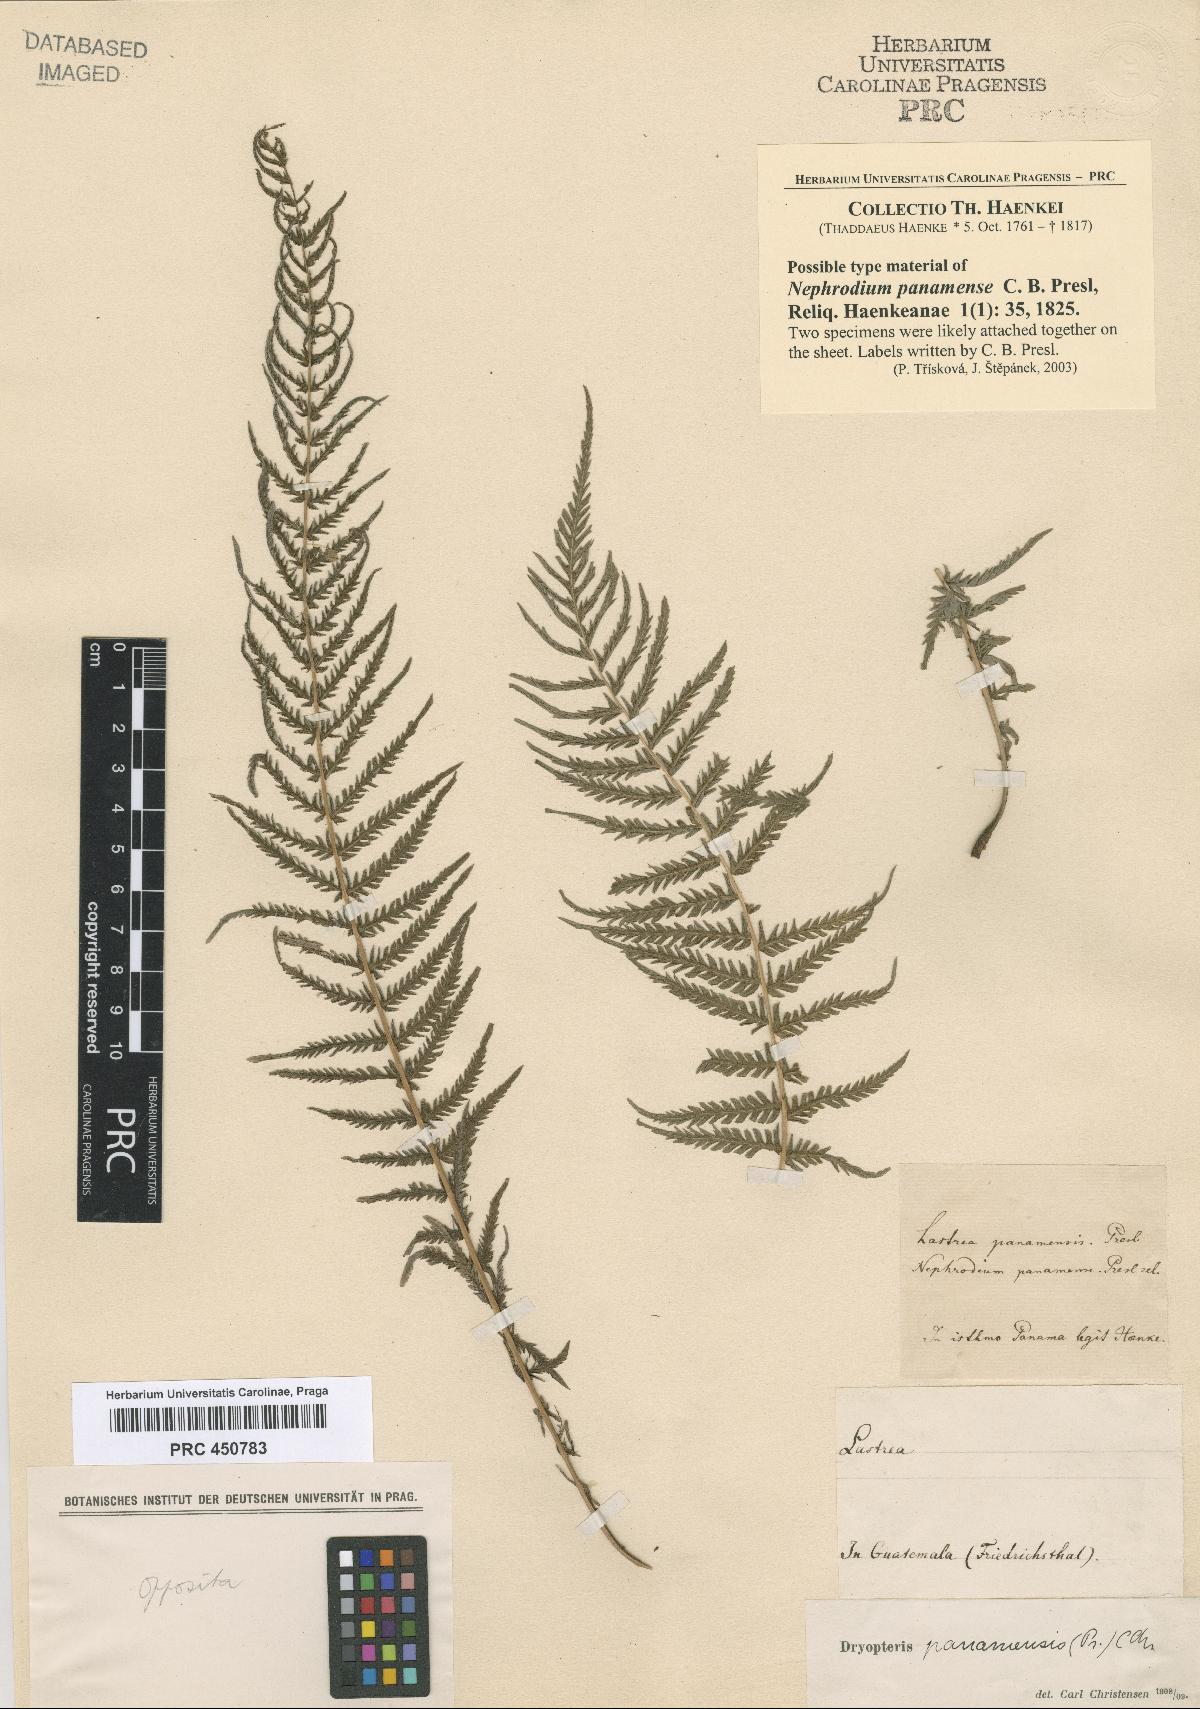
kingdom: Plantae
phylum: Tracheophyta
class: Polypodiopsida
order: Polypodiales
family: Thelypteridaceae
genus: Amauropelta
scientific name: Amauropelta resinifera
